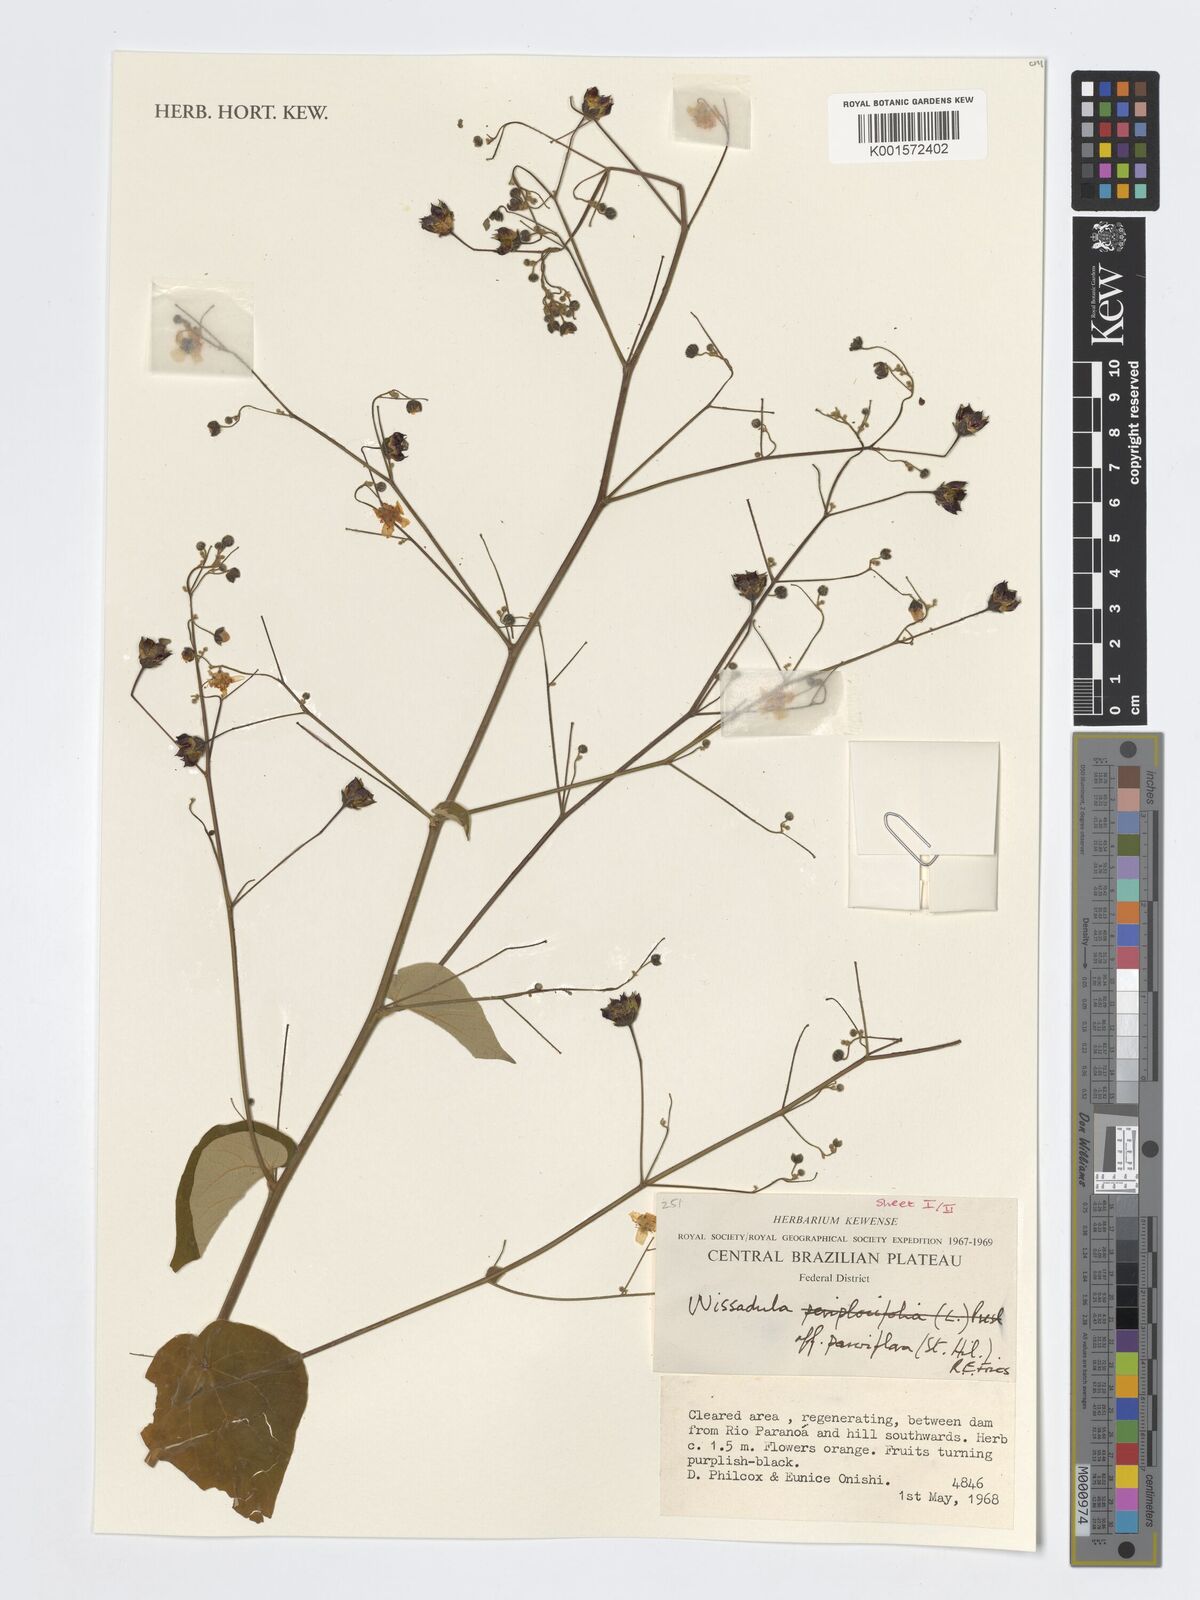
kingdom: Plantae
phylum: Tracheophyta
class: Magnoliopsida
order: Malvales
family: Malvaceae
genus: Wissadula
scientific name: Wissadula parvifolia
